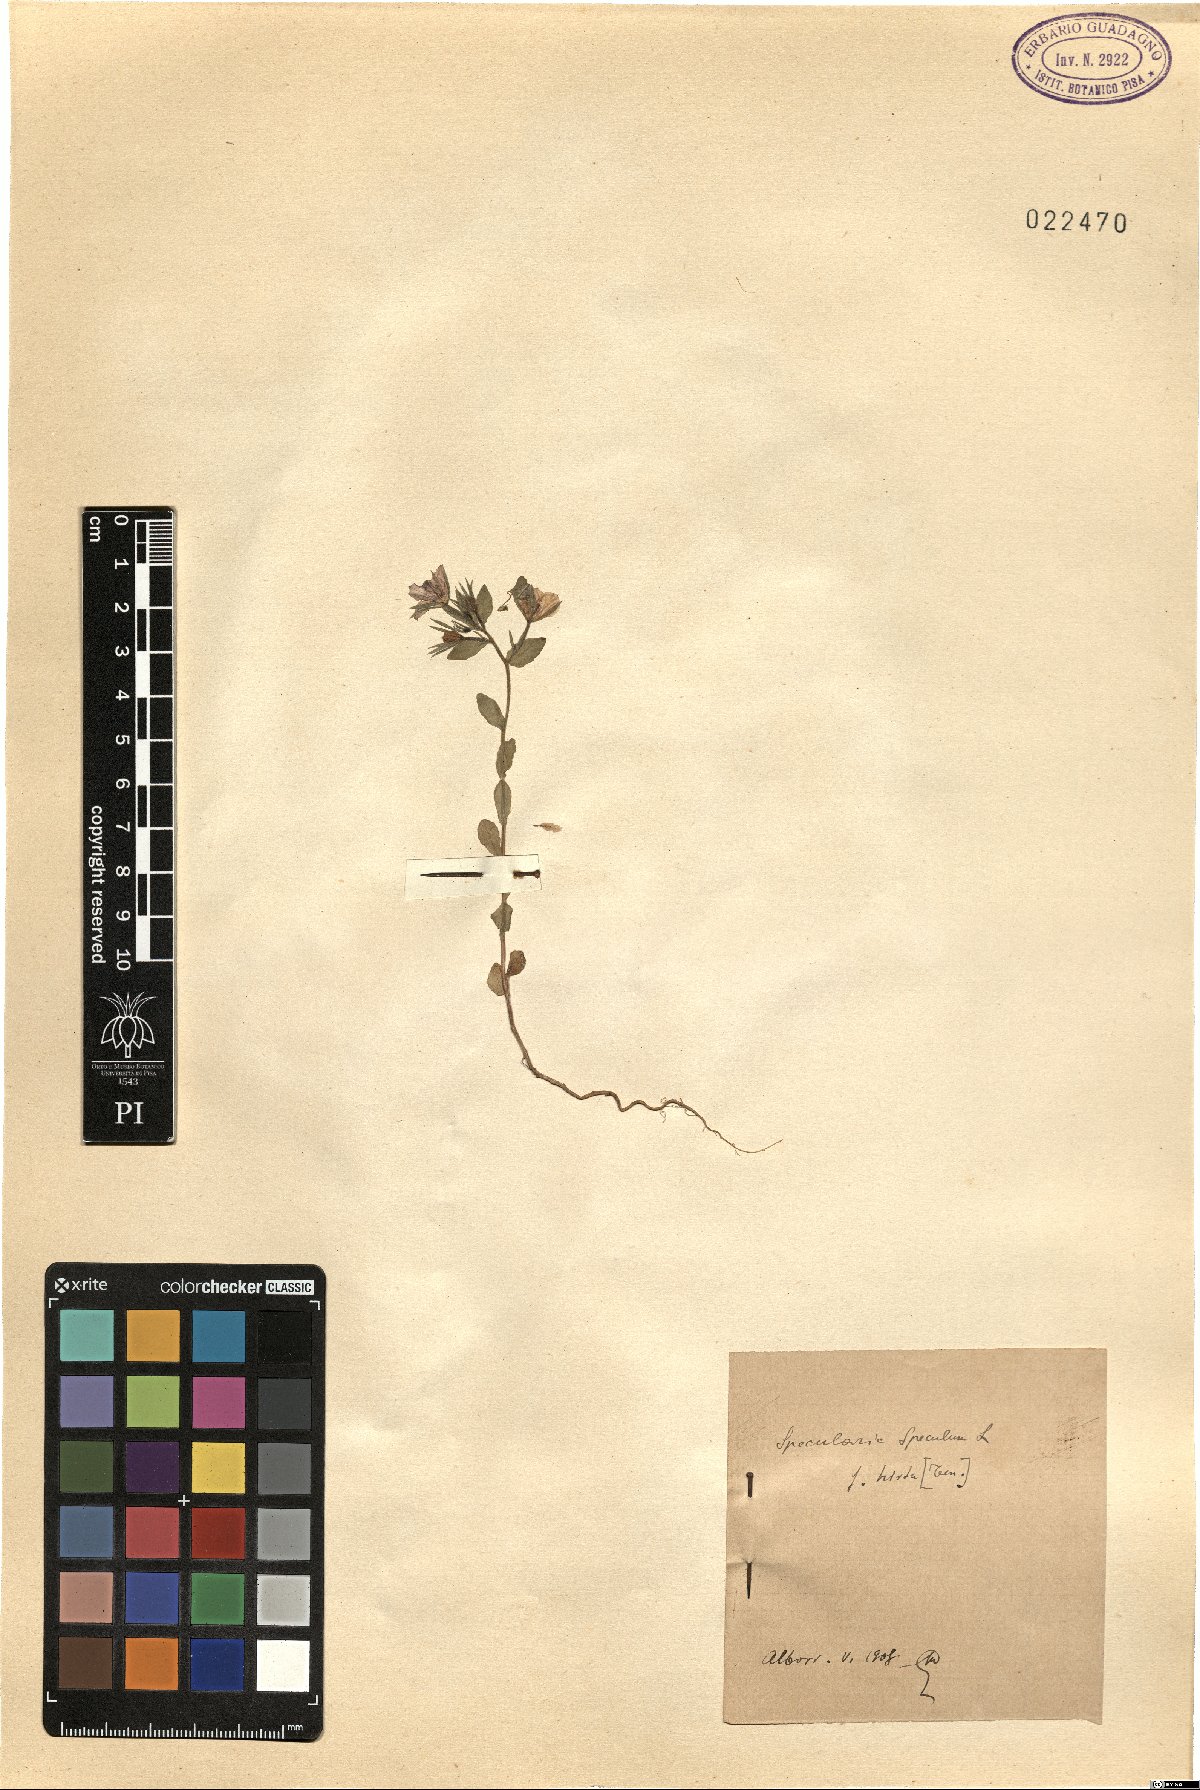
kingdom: Plantae
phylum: Tracheophyta
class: Magnoliopsida
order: Asterales
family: Campanulaceae
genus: Legousia
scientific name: Legousia speculum-veneris
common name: Large venus's-looking-glass
